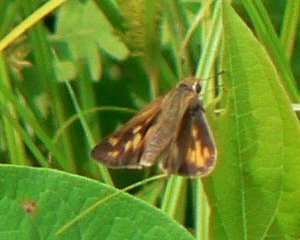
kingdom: Animalia
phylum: Arthropoda
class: Insecta
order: Lepidoptera
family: Hesperiidae
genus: Lon
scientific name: Lon hobomok
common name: Hobomok Skipper
